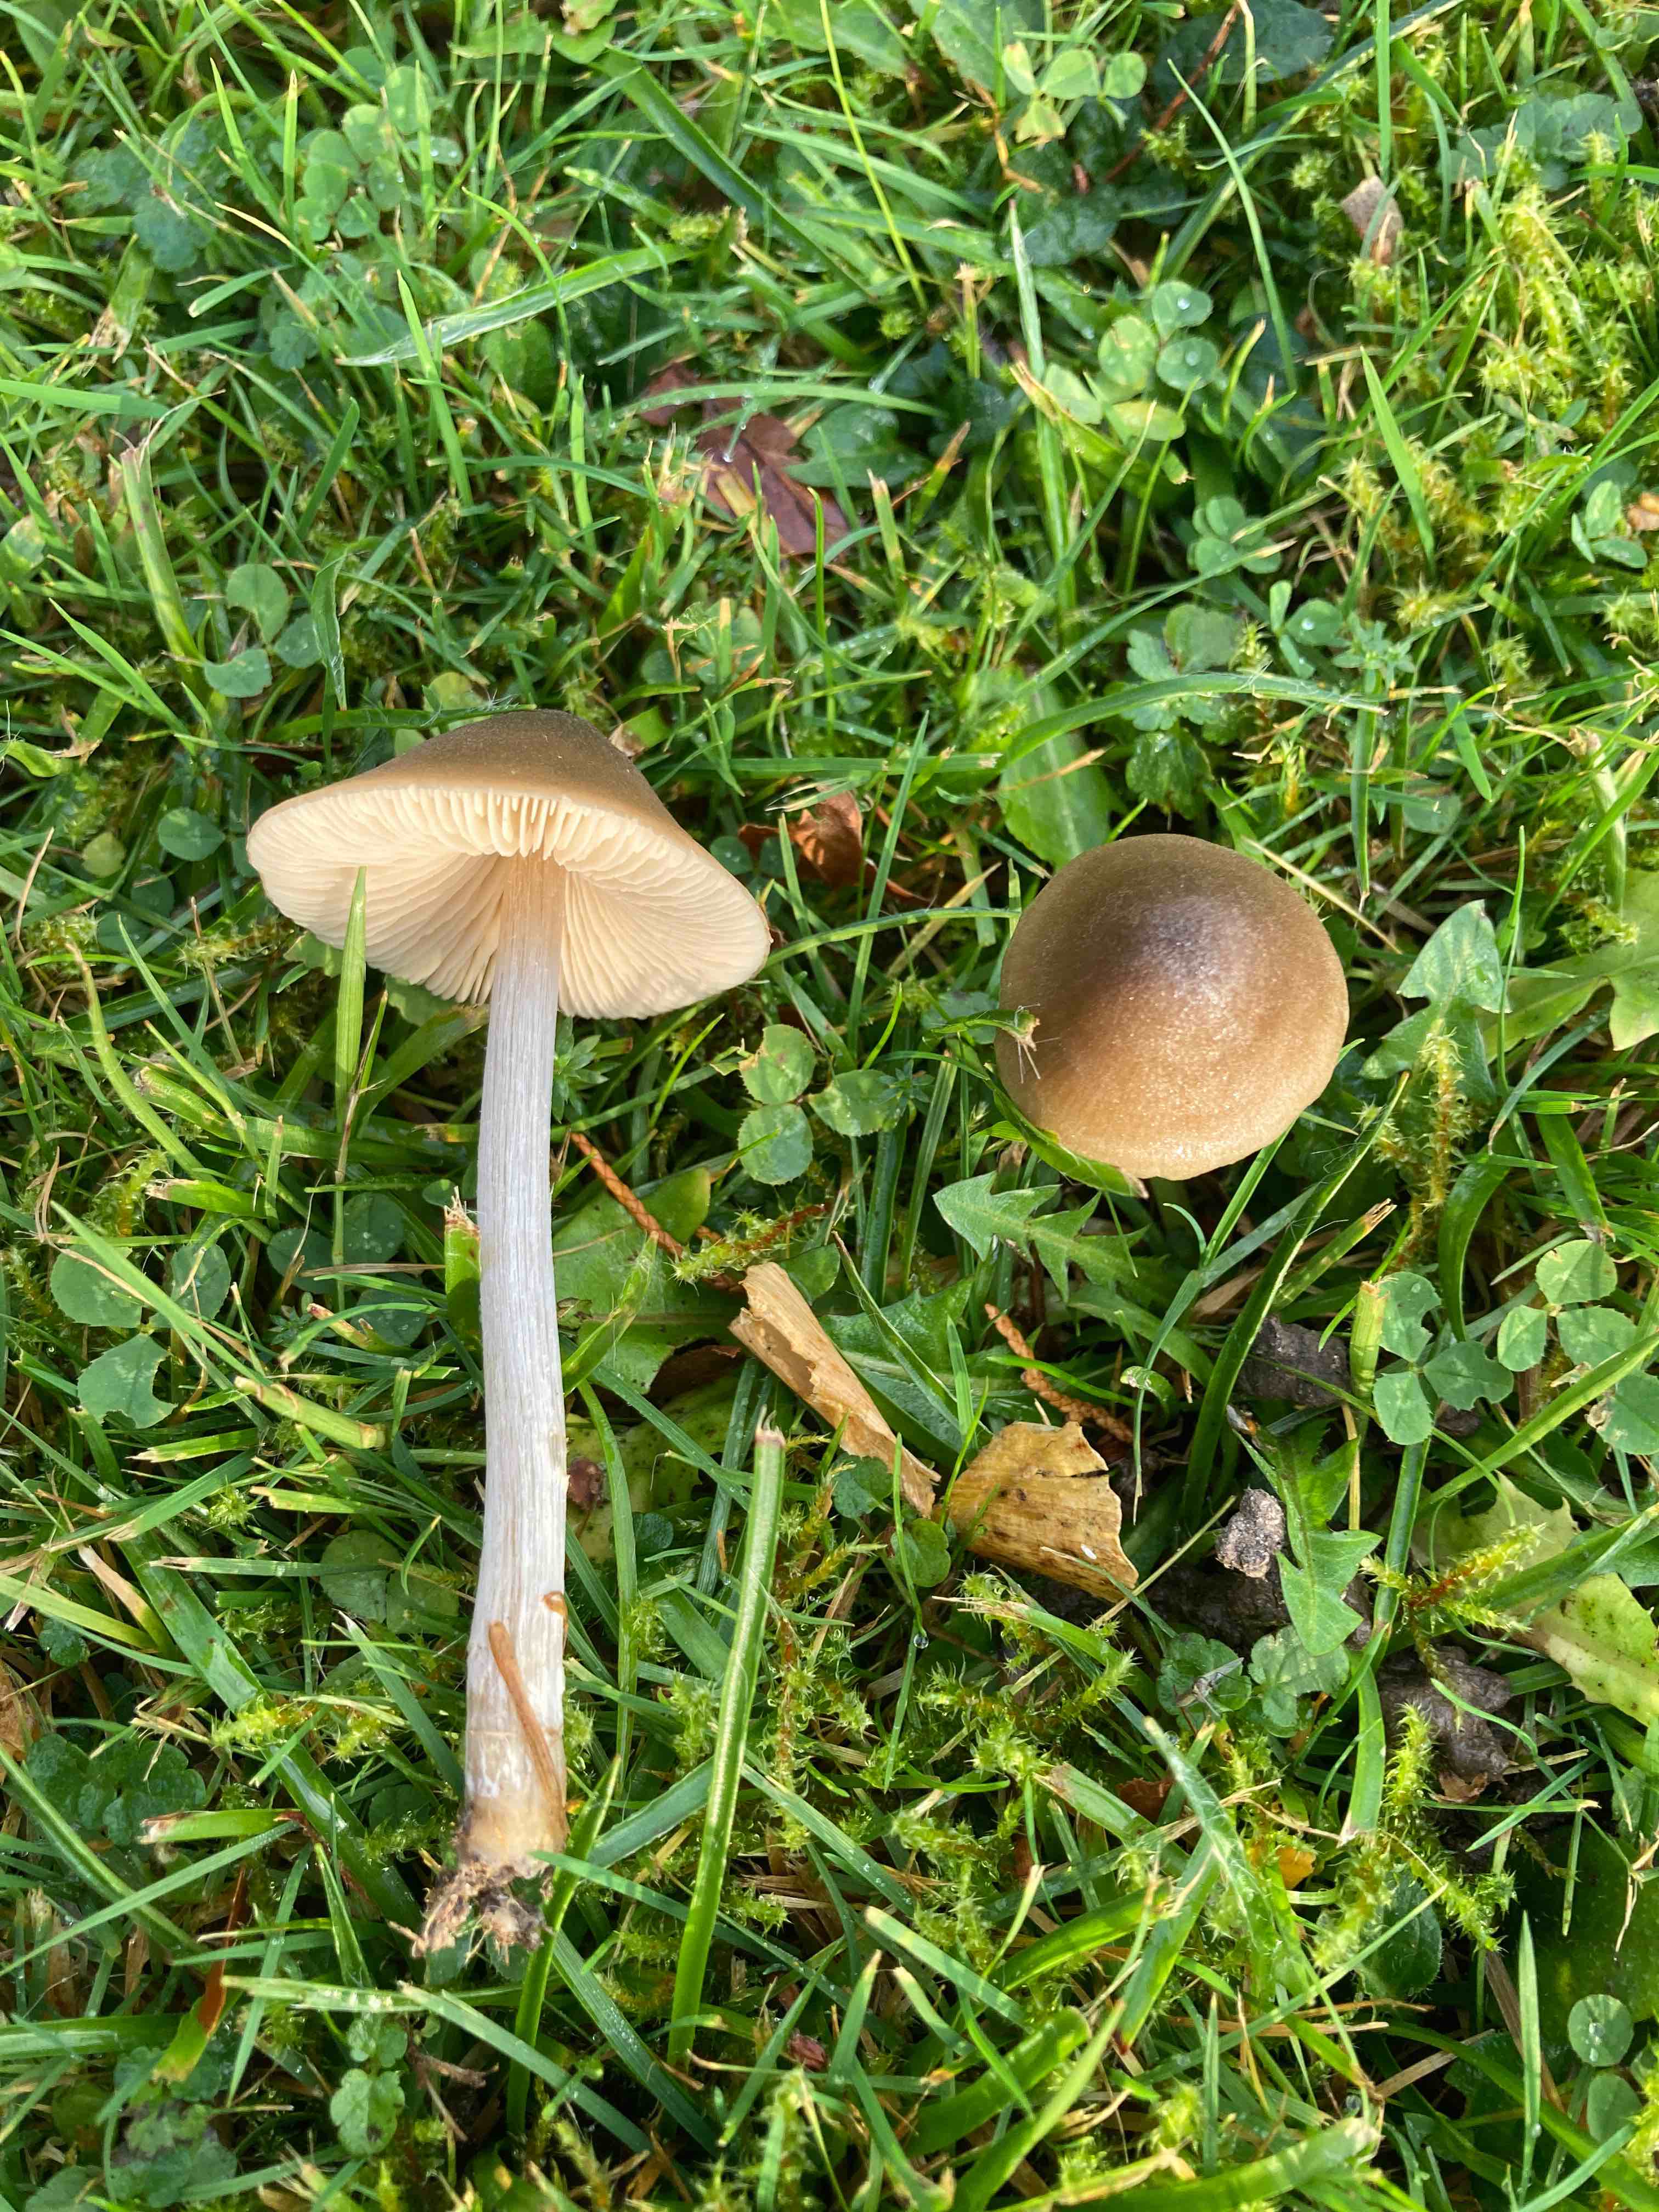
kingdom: Fungi
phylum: Basidiomycota
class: Agaricomycetes
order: Agaricales
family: Entolomataceae
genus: Entoloma
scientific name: Entoloma conferendum
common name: stjernesporet rødblad
